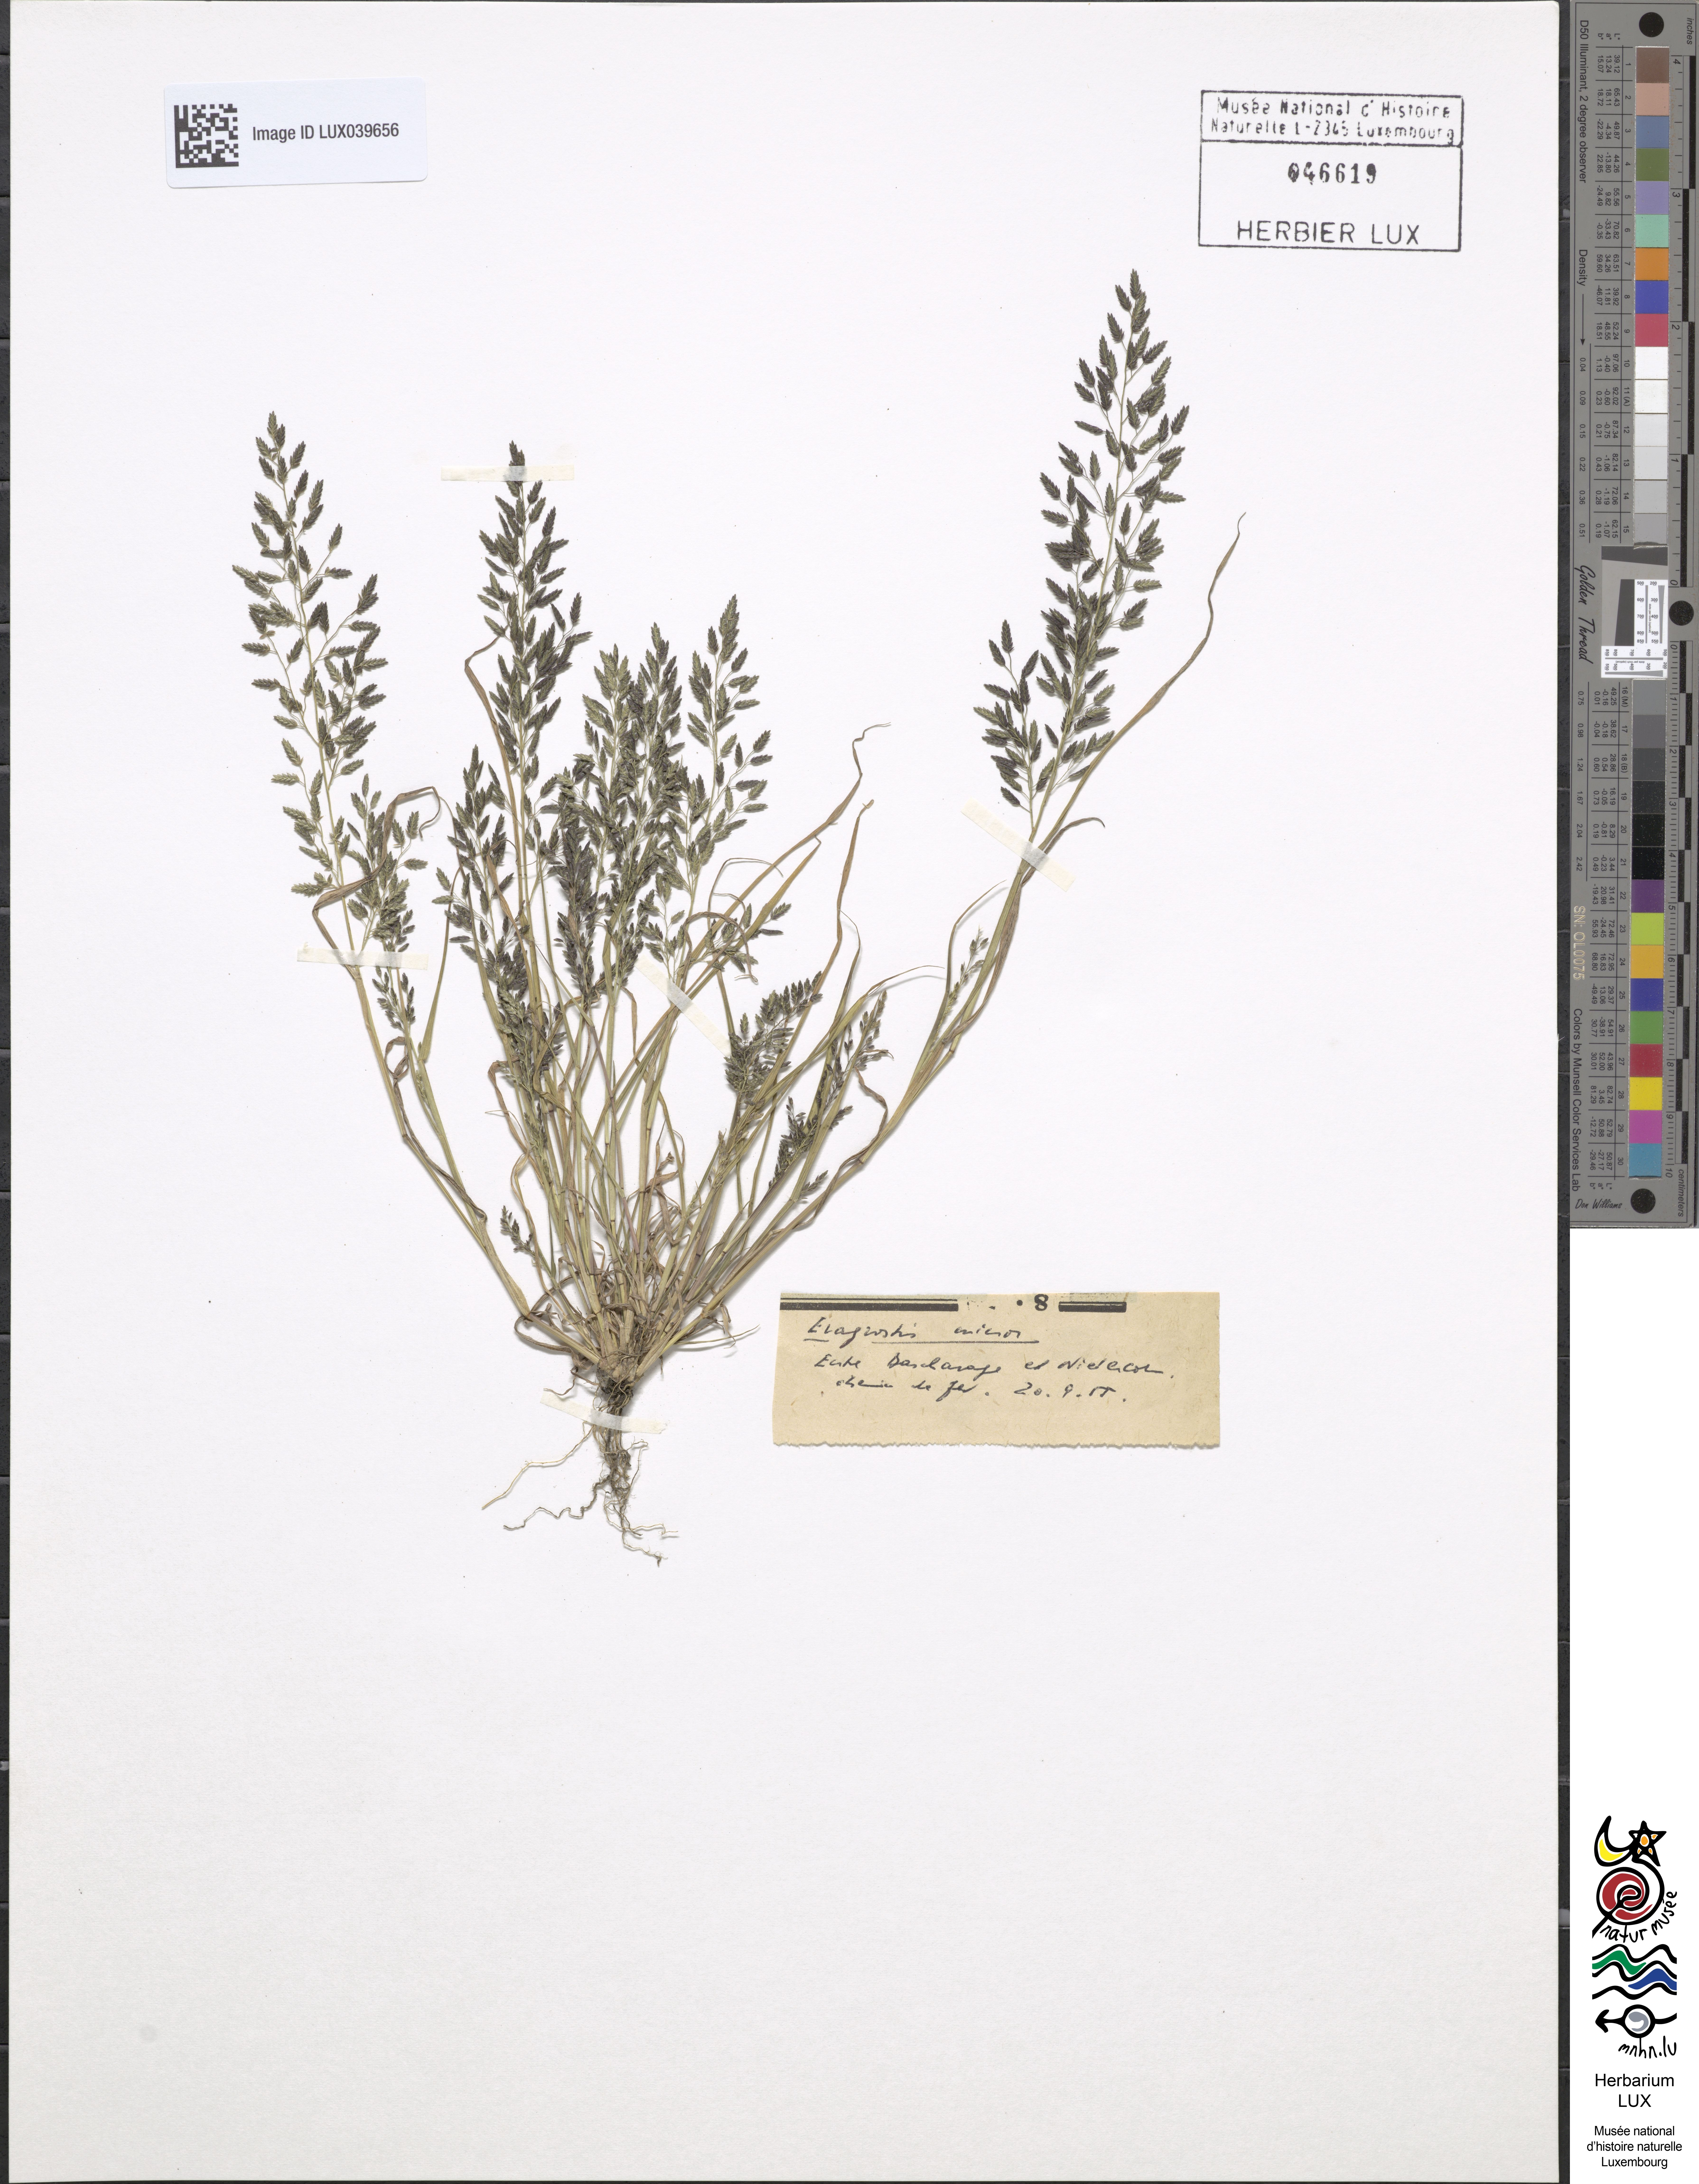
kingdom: Plantae
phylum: Tracheophyta
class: Liliopsida
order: Poales
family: Poaceae
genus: Eragrostis
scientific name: Eragrostis minor
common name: Small love-grass
